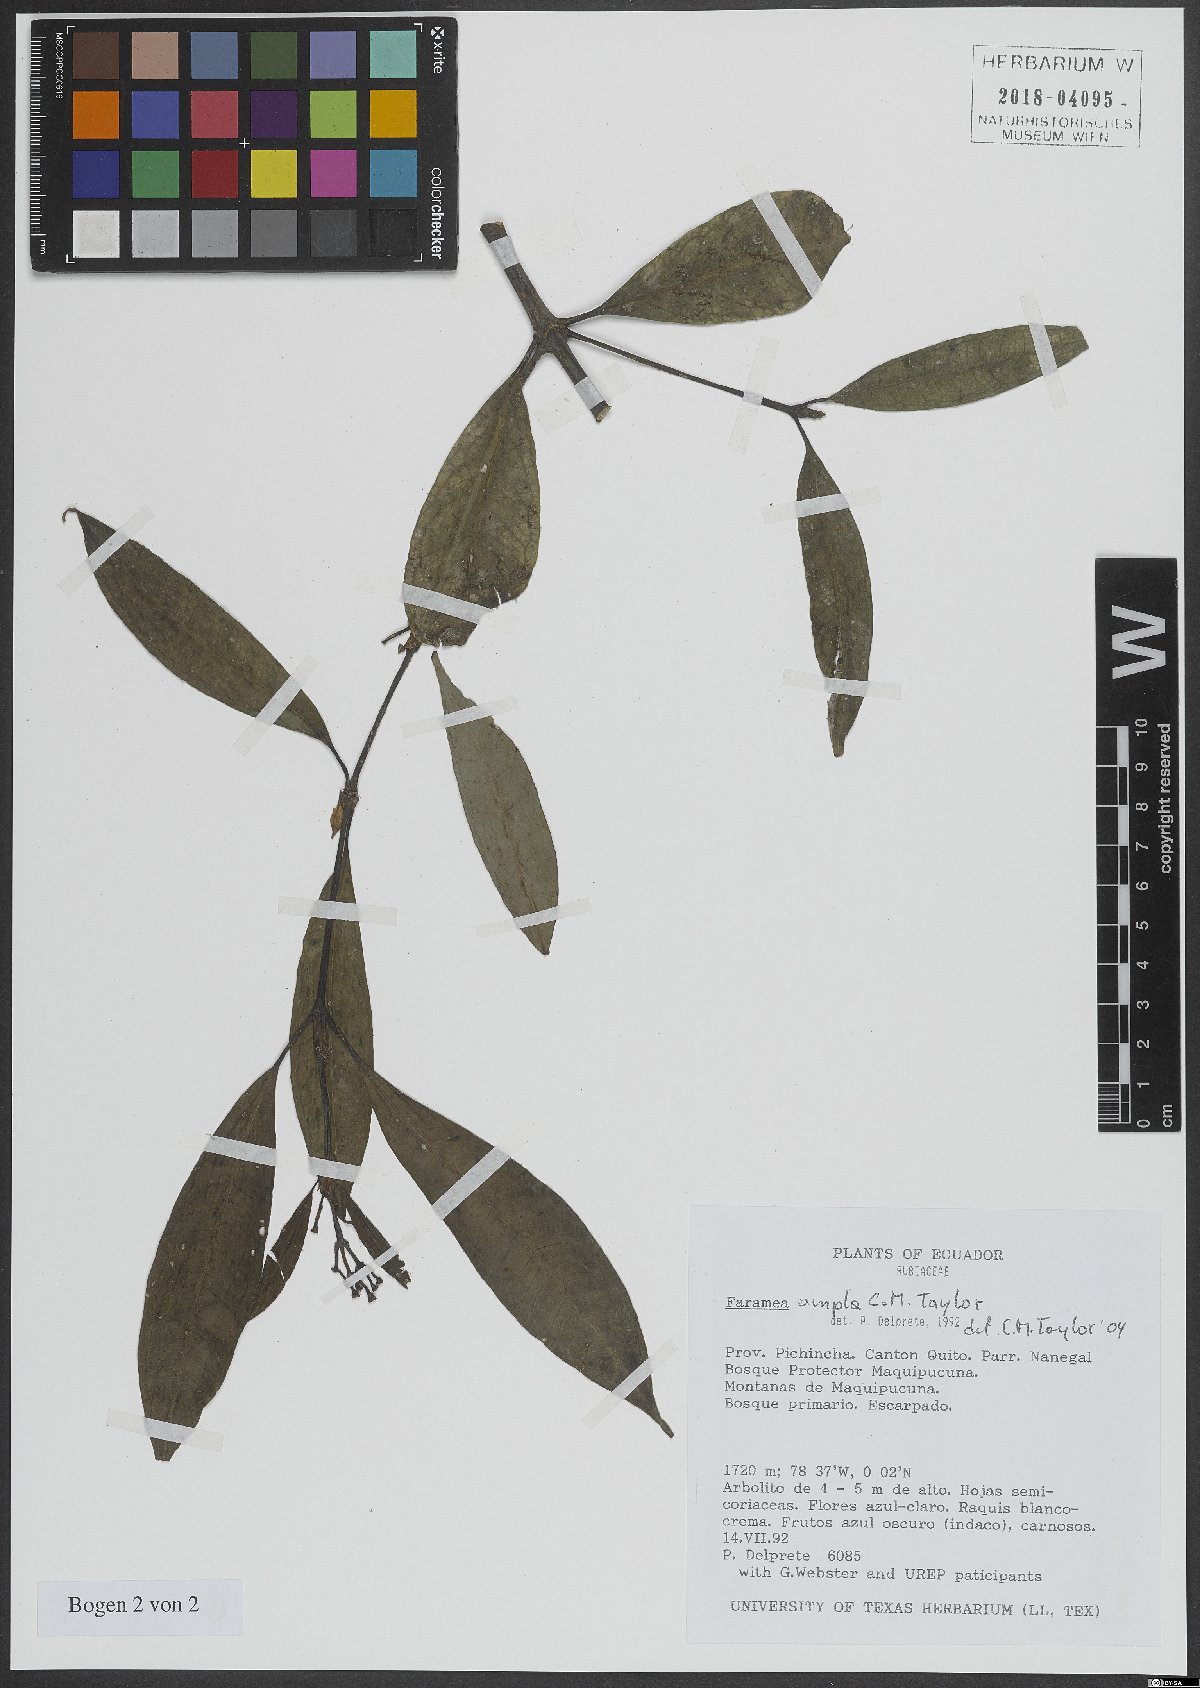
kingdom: Plantae
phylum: Tracheophyta
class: Magnoliopsida
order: Gentianales
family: Rubiaceae
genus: Faramea
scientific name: Faramea ampla
